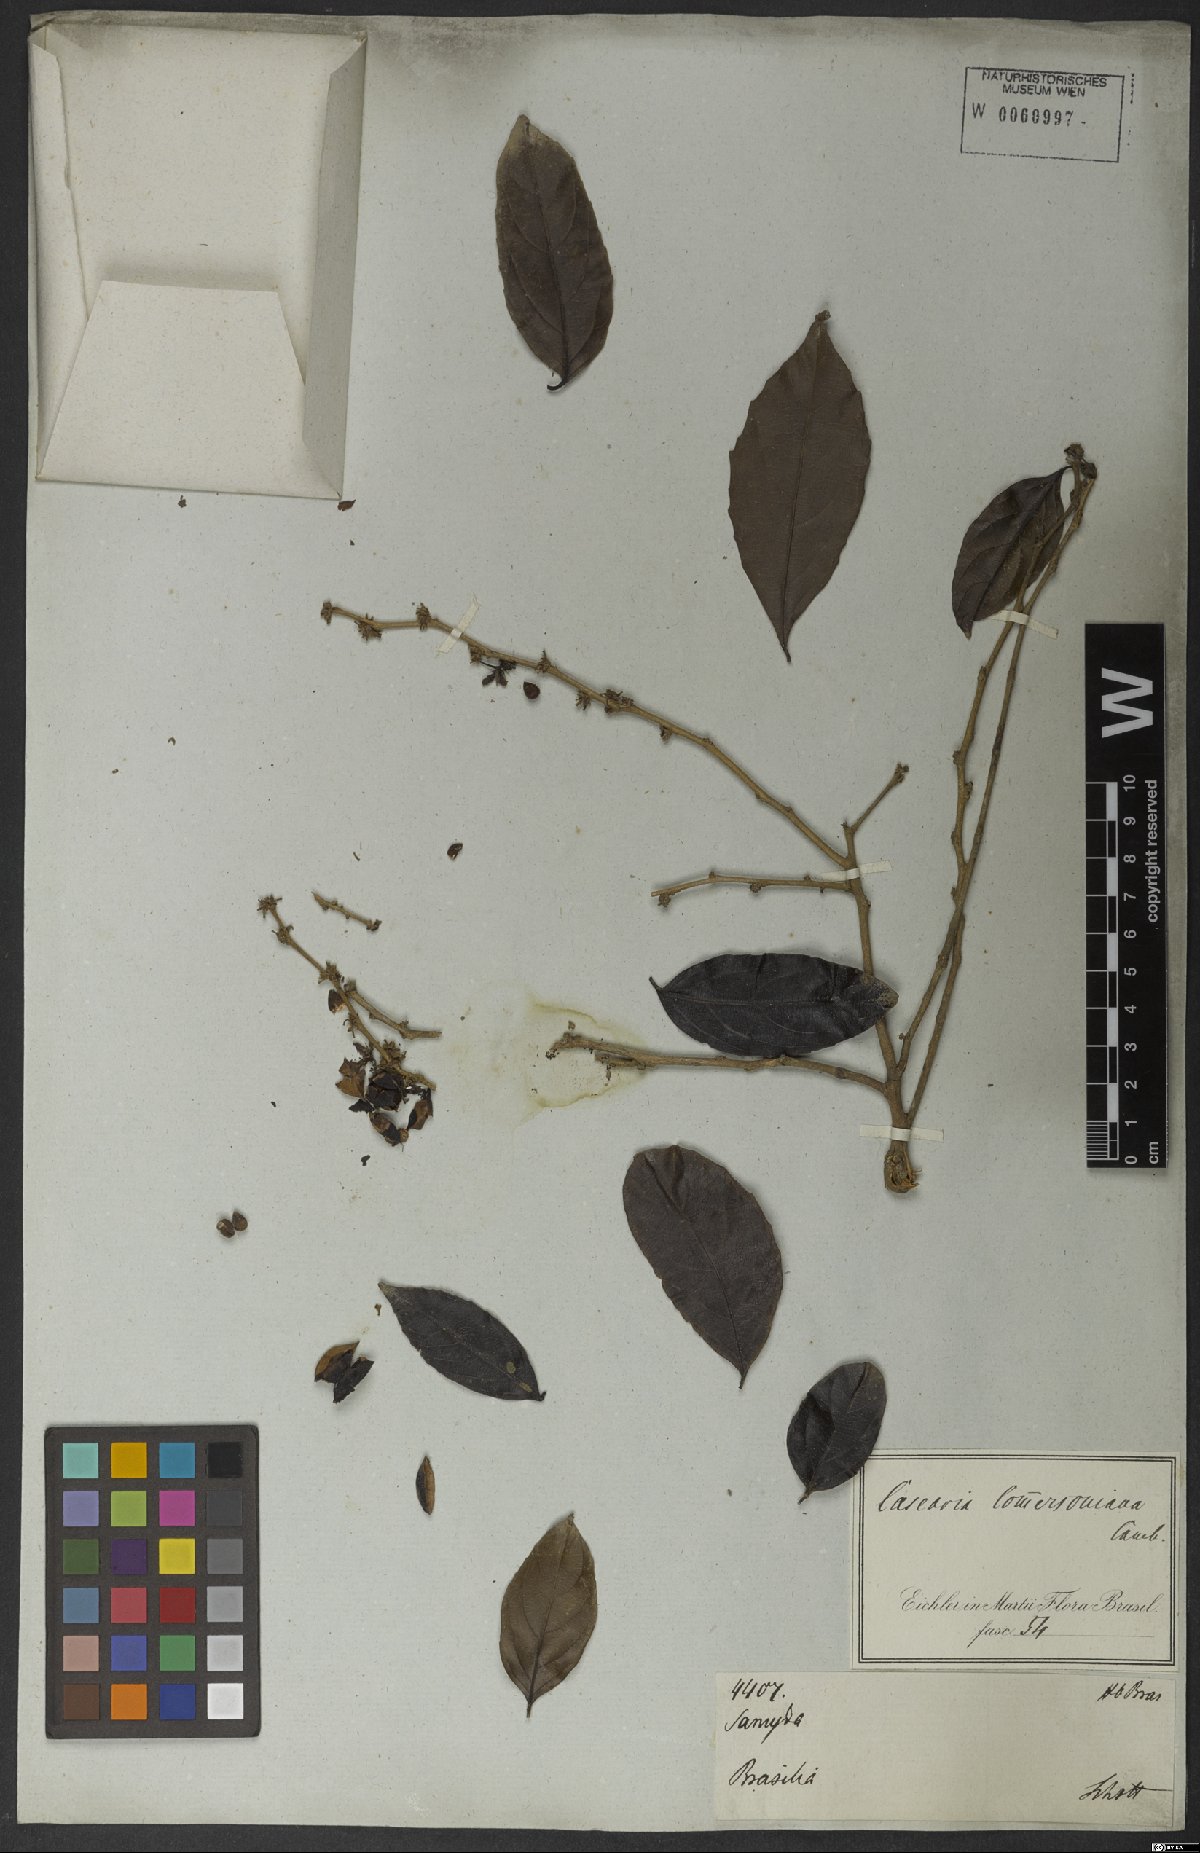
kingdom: Plantae
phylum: Tracheophyta
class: Magnoliopsida
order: Malpighiales
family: Salicaceae
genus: Piparea
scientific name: Piparea dentata
